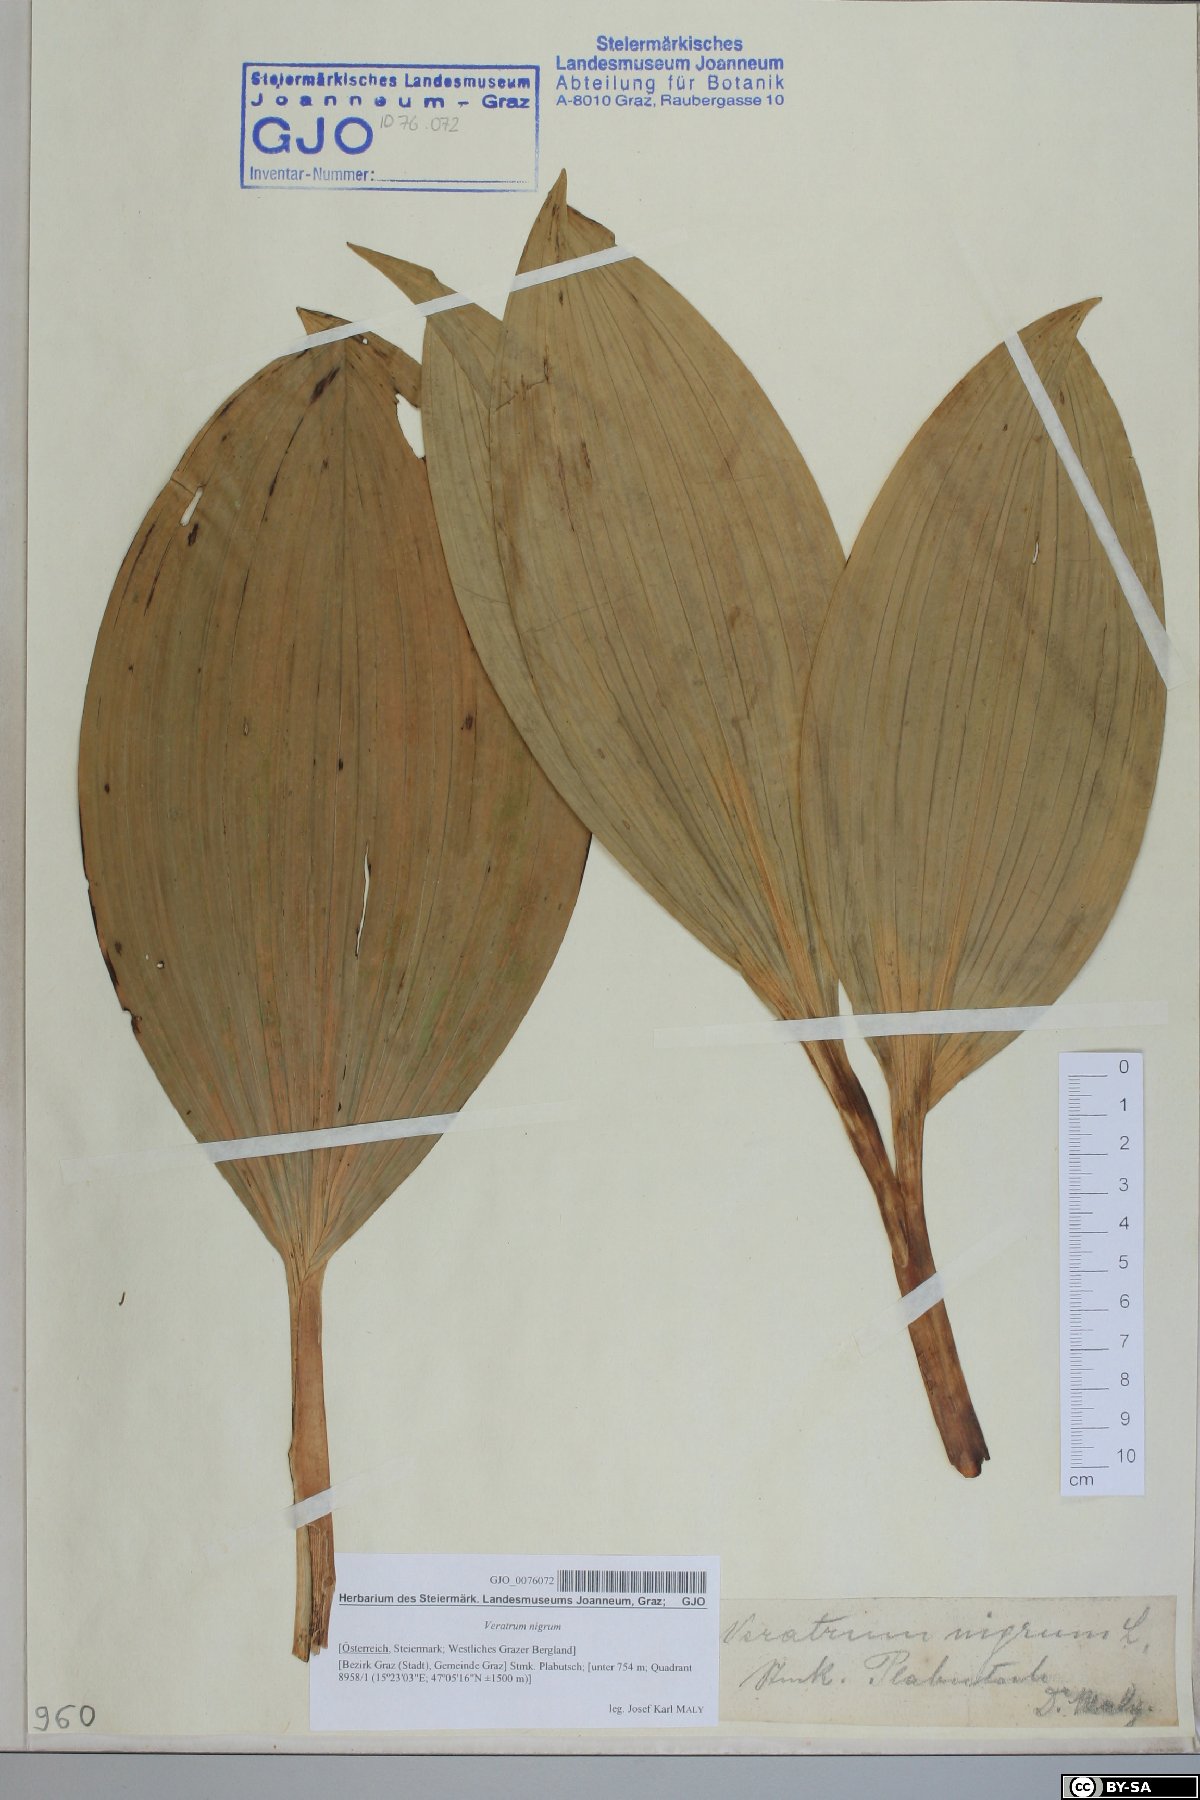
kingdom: Plantae
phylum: Tracheophyta
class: Liliopsida
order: Liliales
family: Melanthiaceae
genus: Veratrum
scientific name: Veratrum nigrum
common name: Black veratrum
